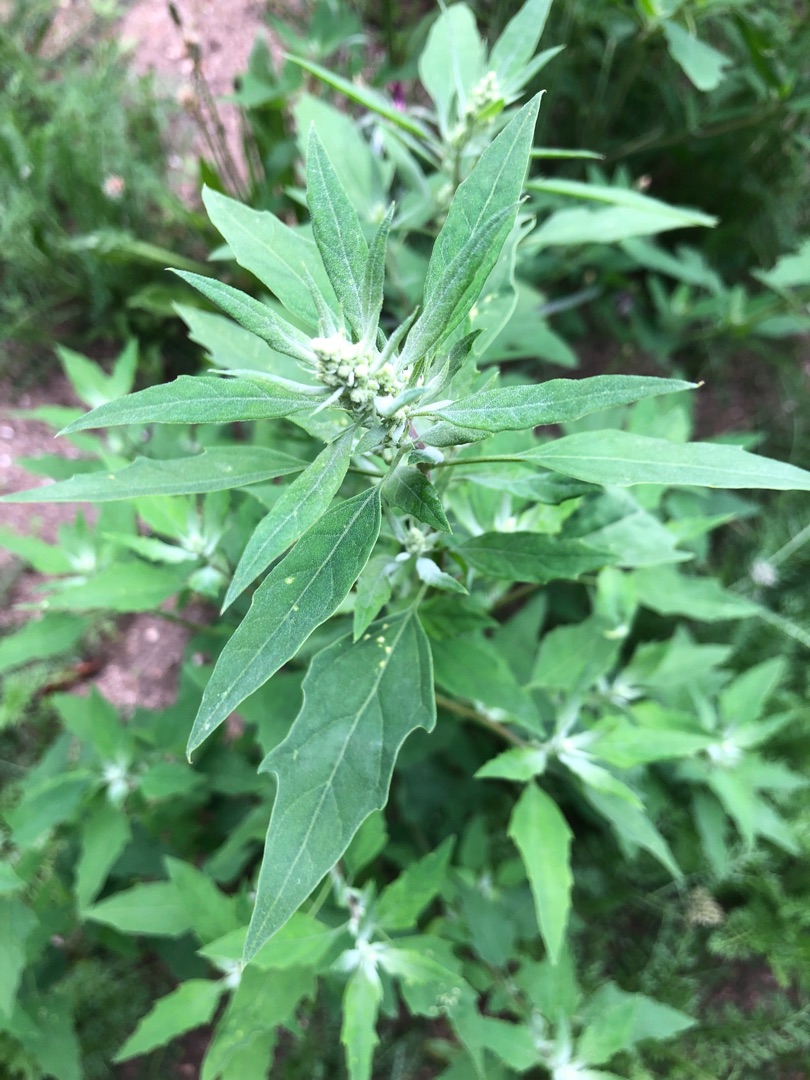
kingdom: Plantae
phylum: Tracheophyta
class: Magnoliopsida
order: Caryophyllales
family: Amaranthaceae
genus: Chenopodium
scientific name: Chenopodium album
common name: Hvidmelet gåsefod
